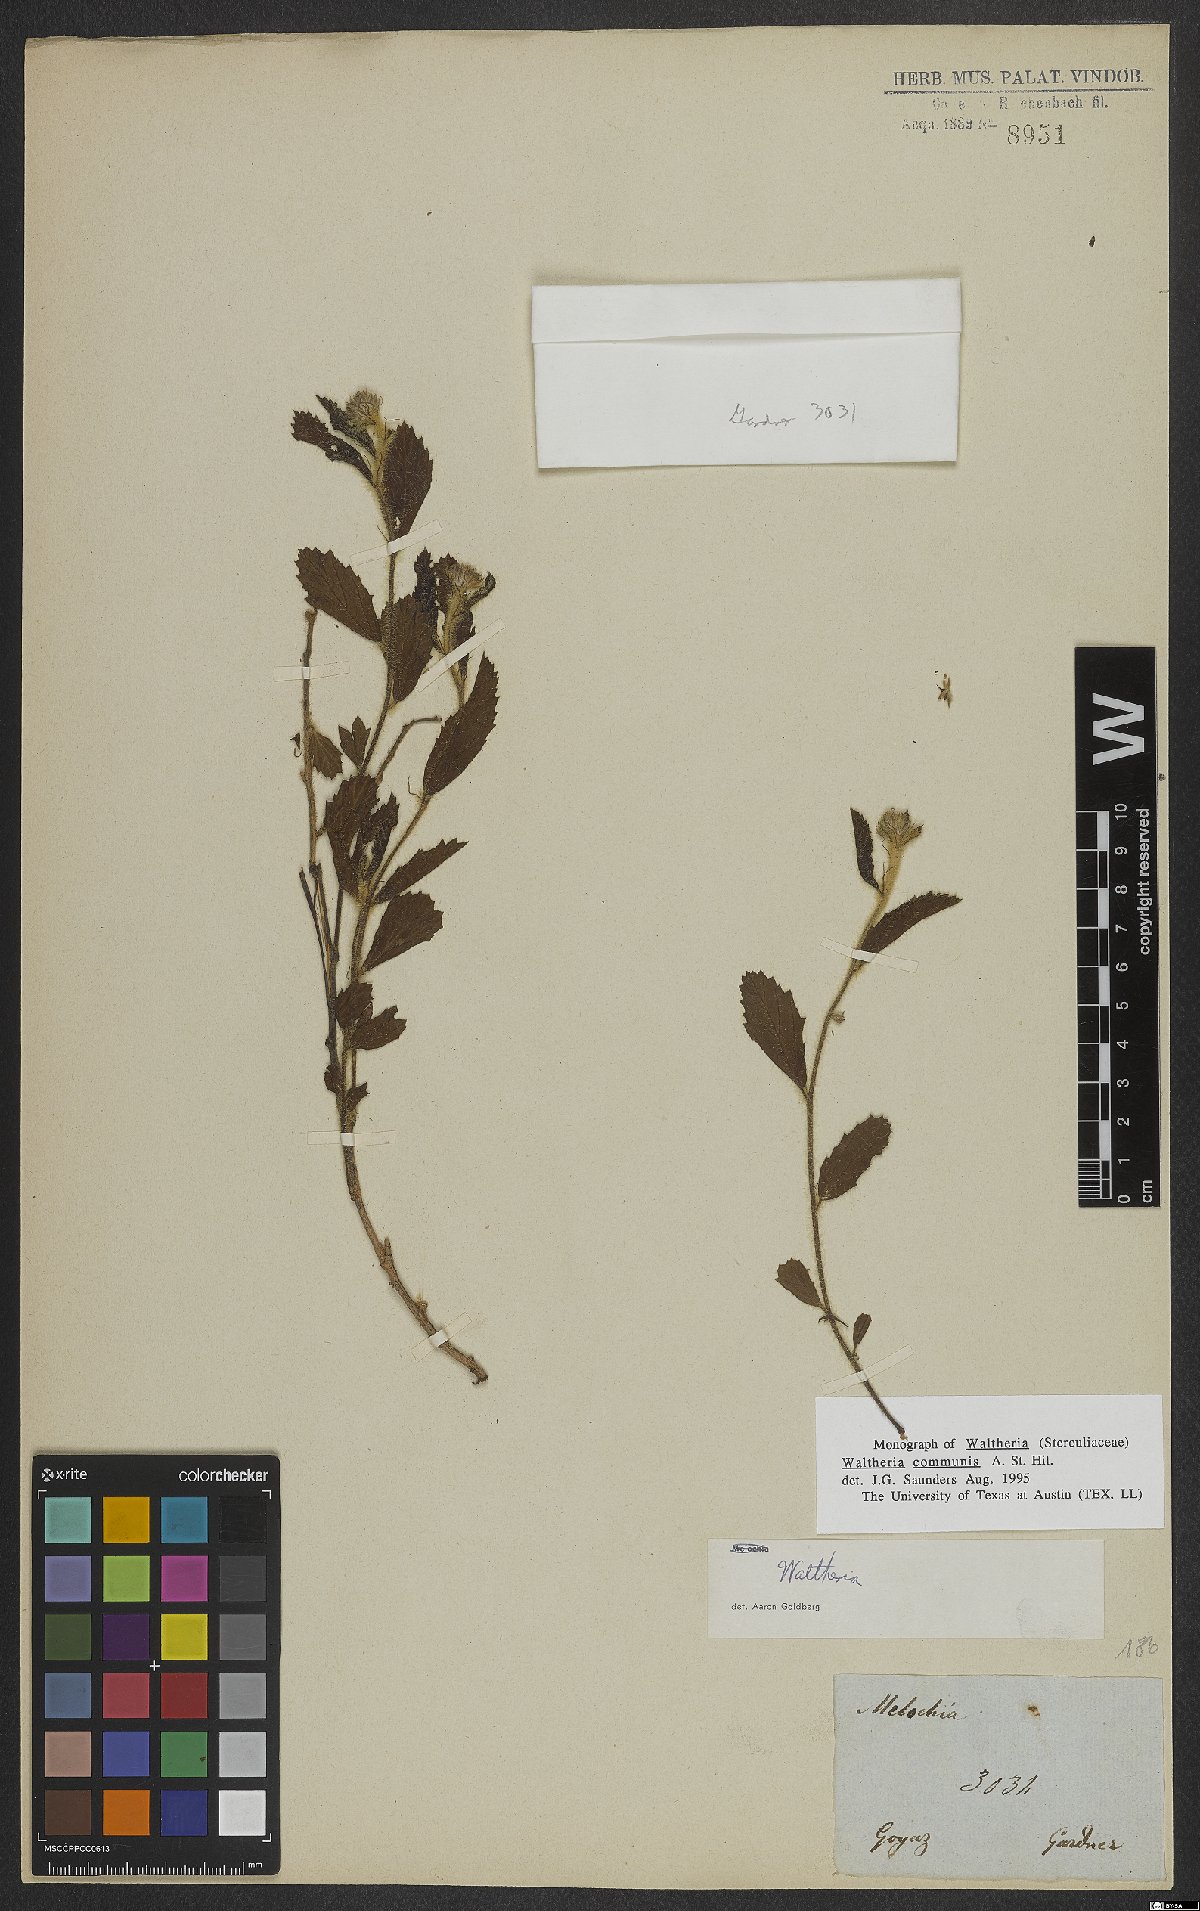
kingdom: Plantae
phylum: Tracheophyta
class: Magnoliopsida
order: Malvales
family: Malvaceae
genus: Waltheria
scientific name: Waltheria communis
